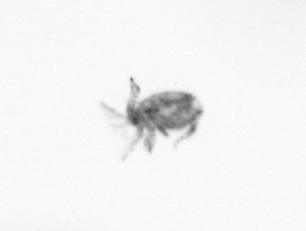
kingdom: Animalia
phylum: Arthropoda
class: Copepoda
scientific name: Copepoda
